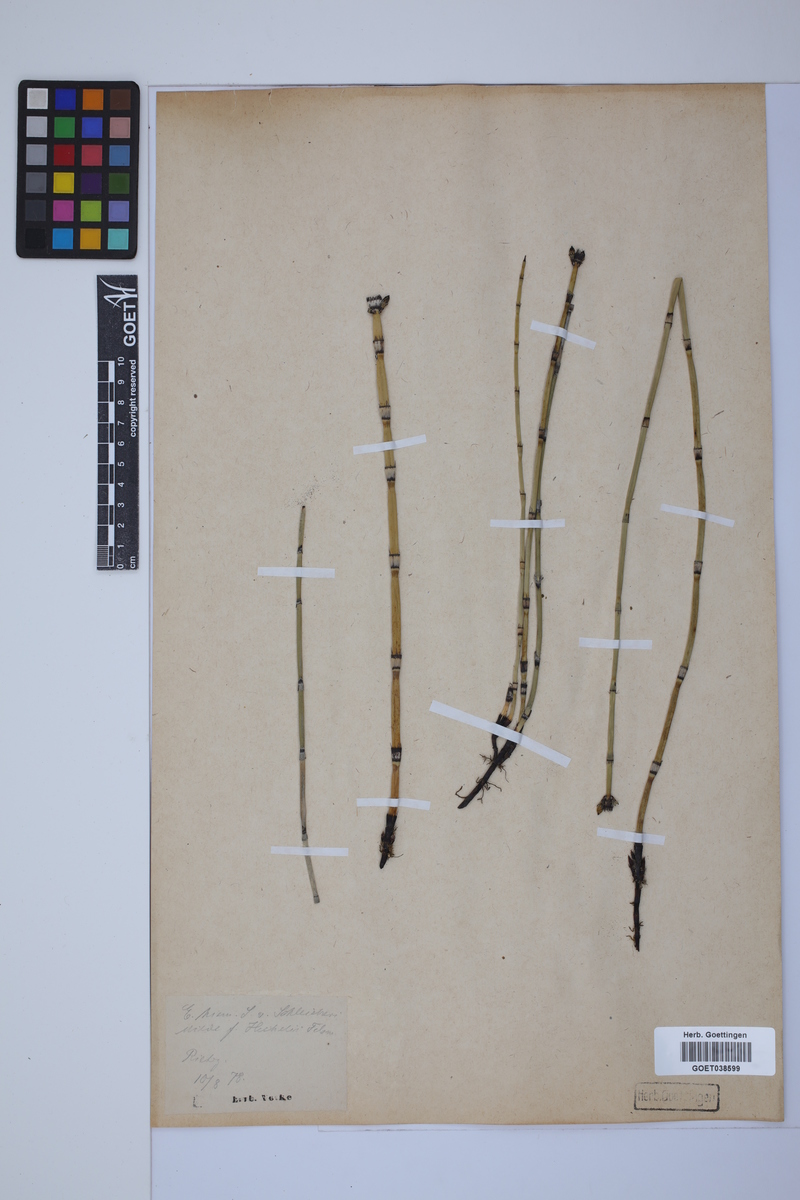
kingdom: Plantae
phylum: Tracheophyta
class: Polypodiopsida
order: Equisetales
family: Equisetaceae
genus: Equisetum
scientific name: Equisetum hyemale
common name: Rough horsetail
